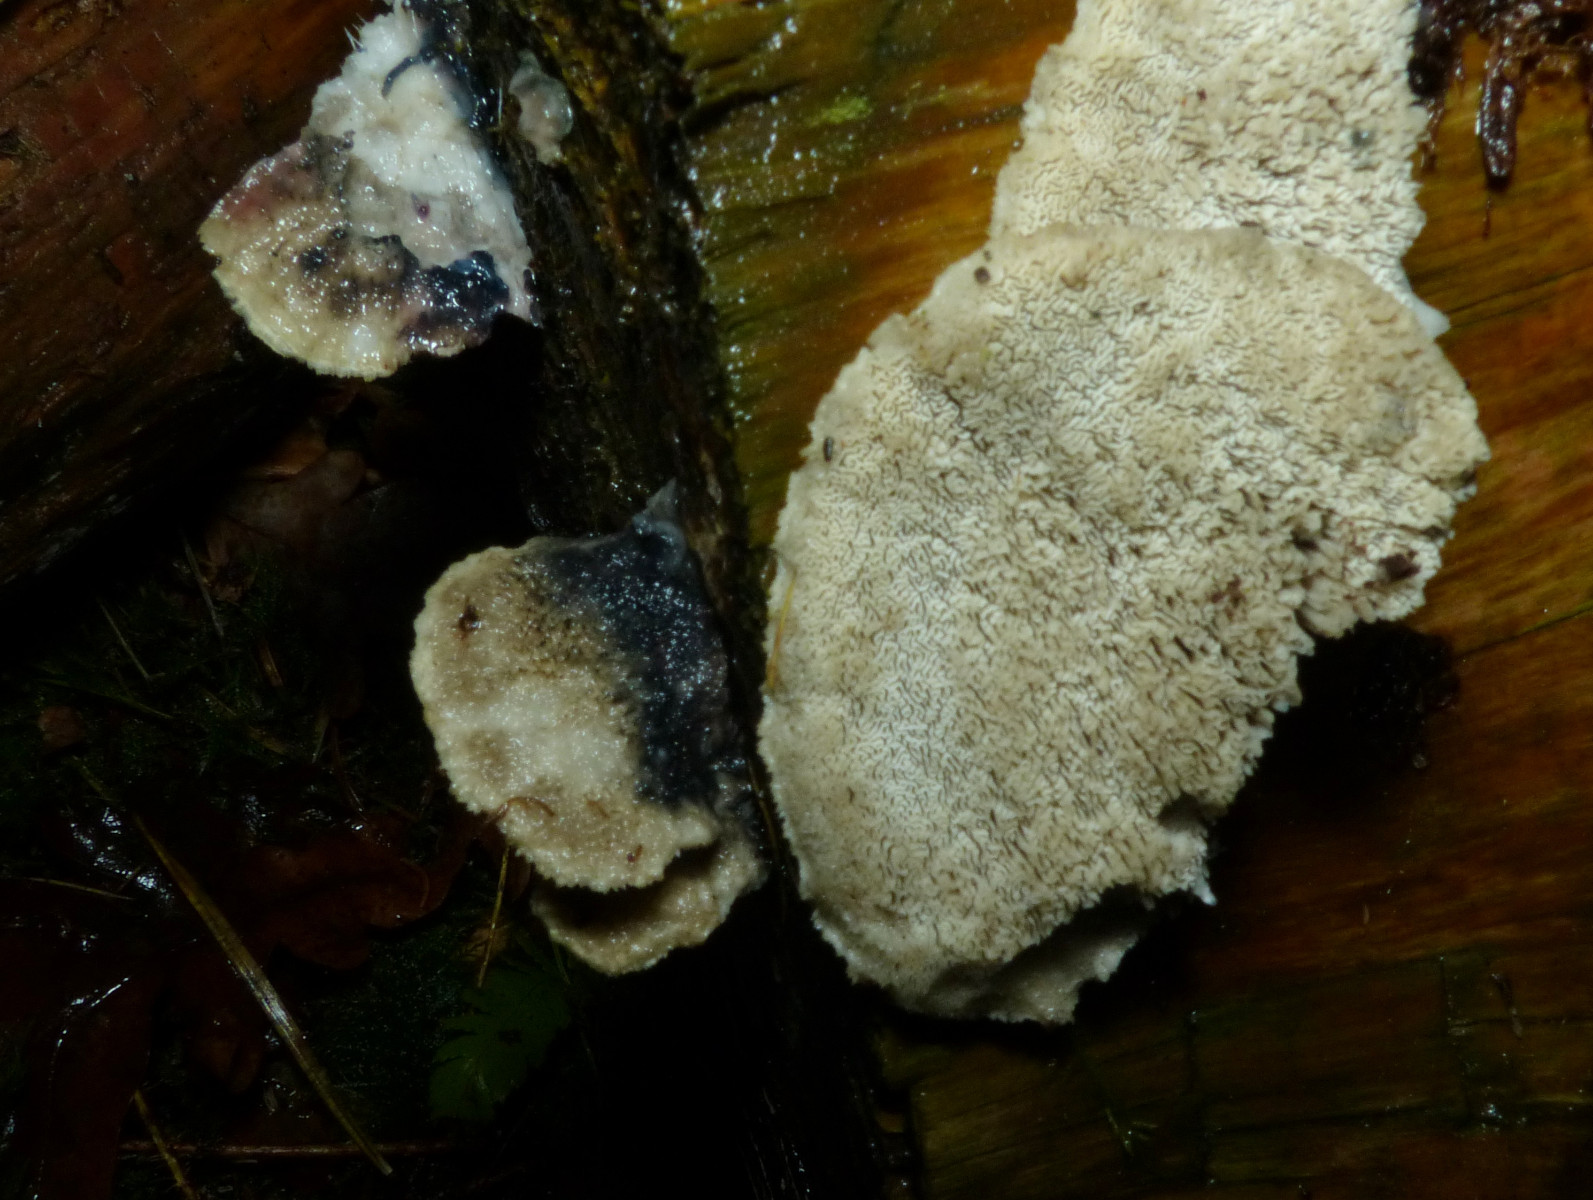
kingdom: Fungi
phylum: Basidiomycota
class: Agaricomycetes
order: Polyporales
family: Polyporaceae
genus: Cyanosporus
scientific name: Cyanosporus caesius
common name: blålig kødporesvamp
